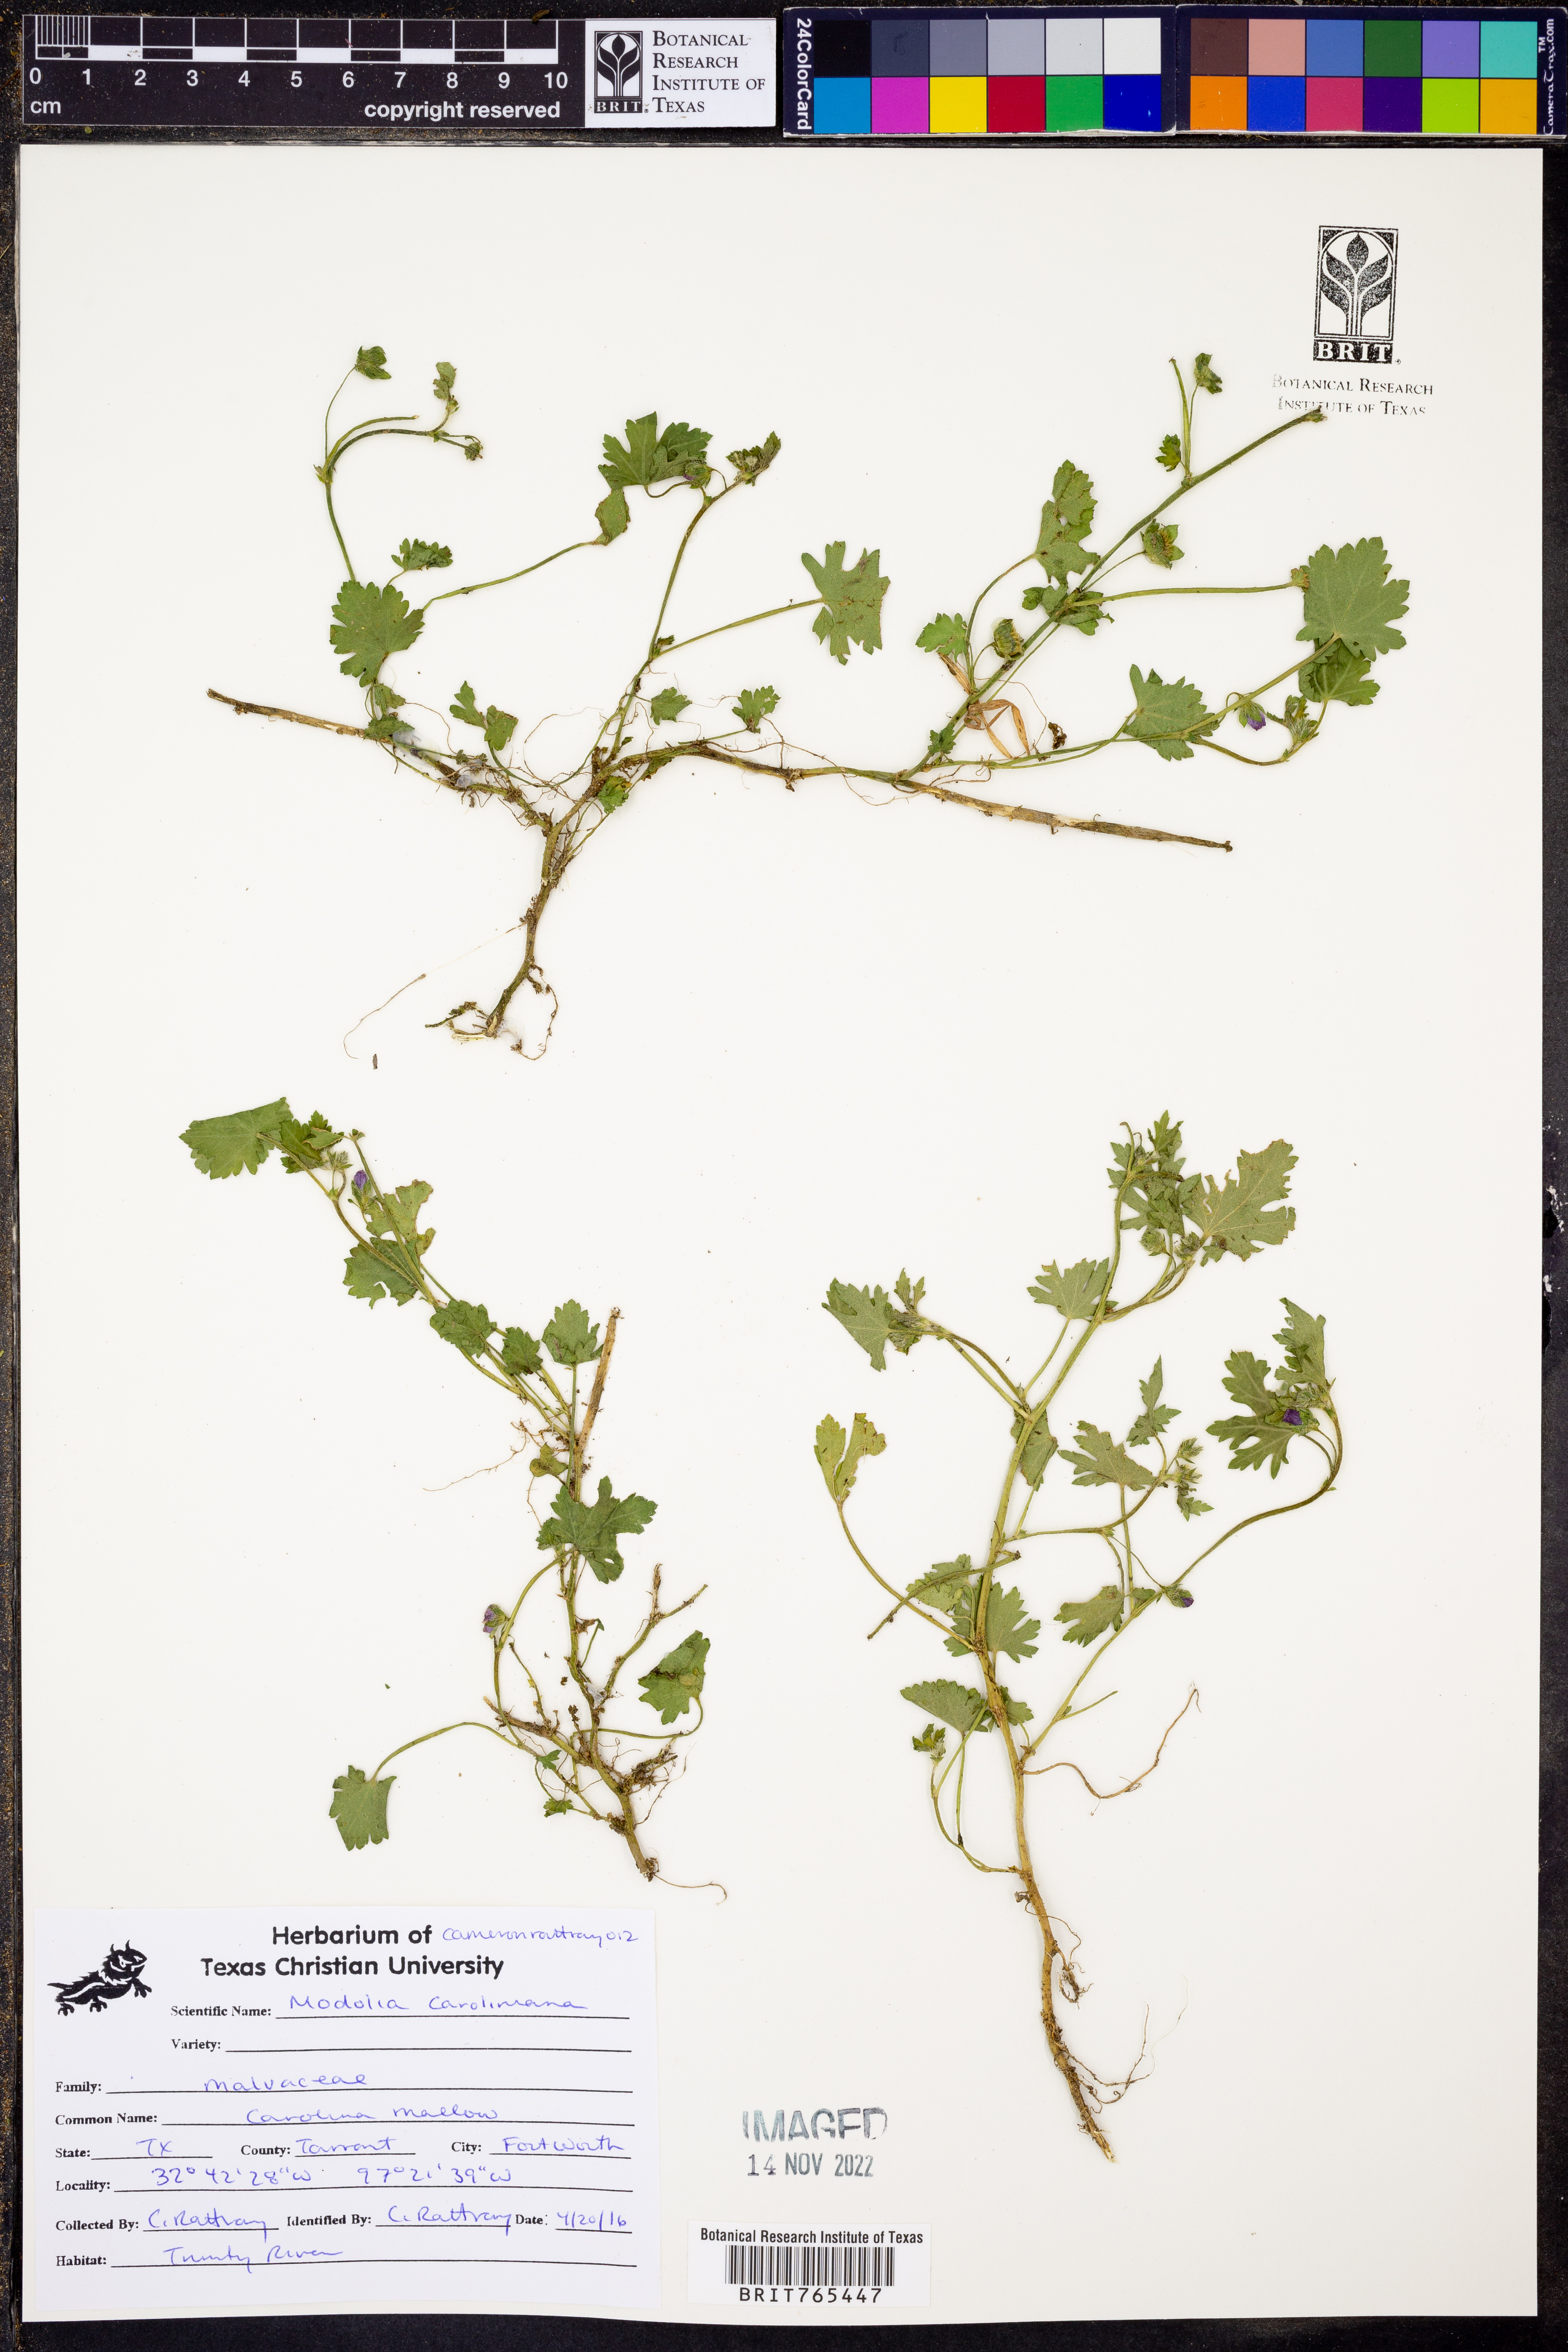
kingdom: Plantae
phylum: Tracheophyta
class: Magnoliopsida
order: Malvales
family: Malvaceae
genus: Modiola
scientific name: Modiola caroliniana
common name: Carolina bristlemallow
